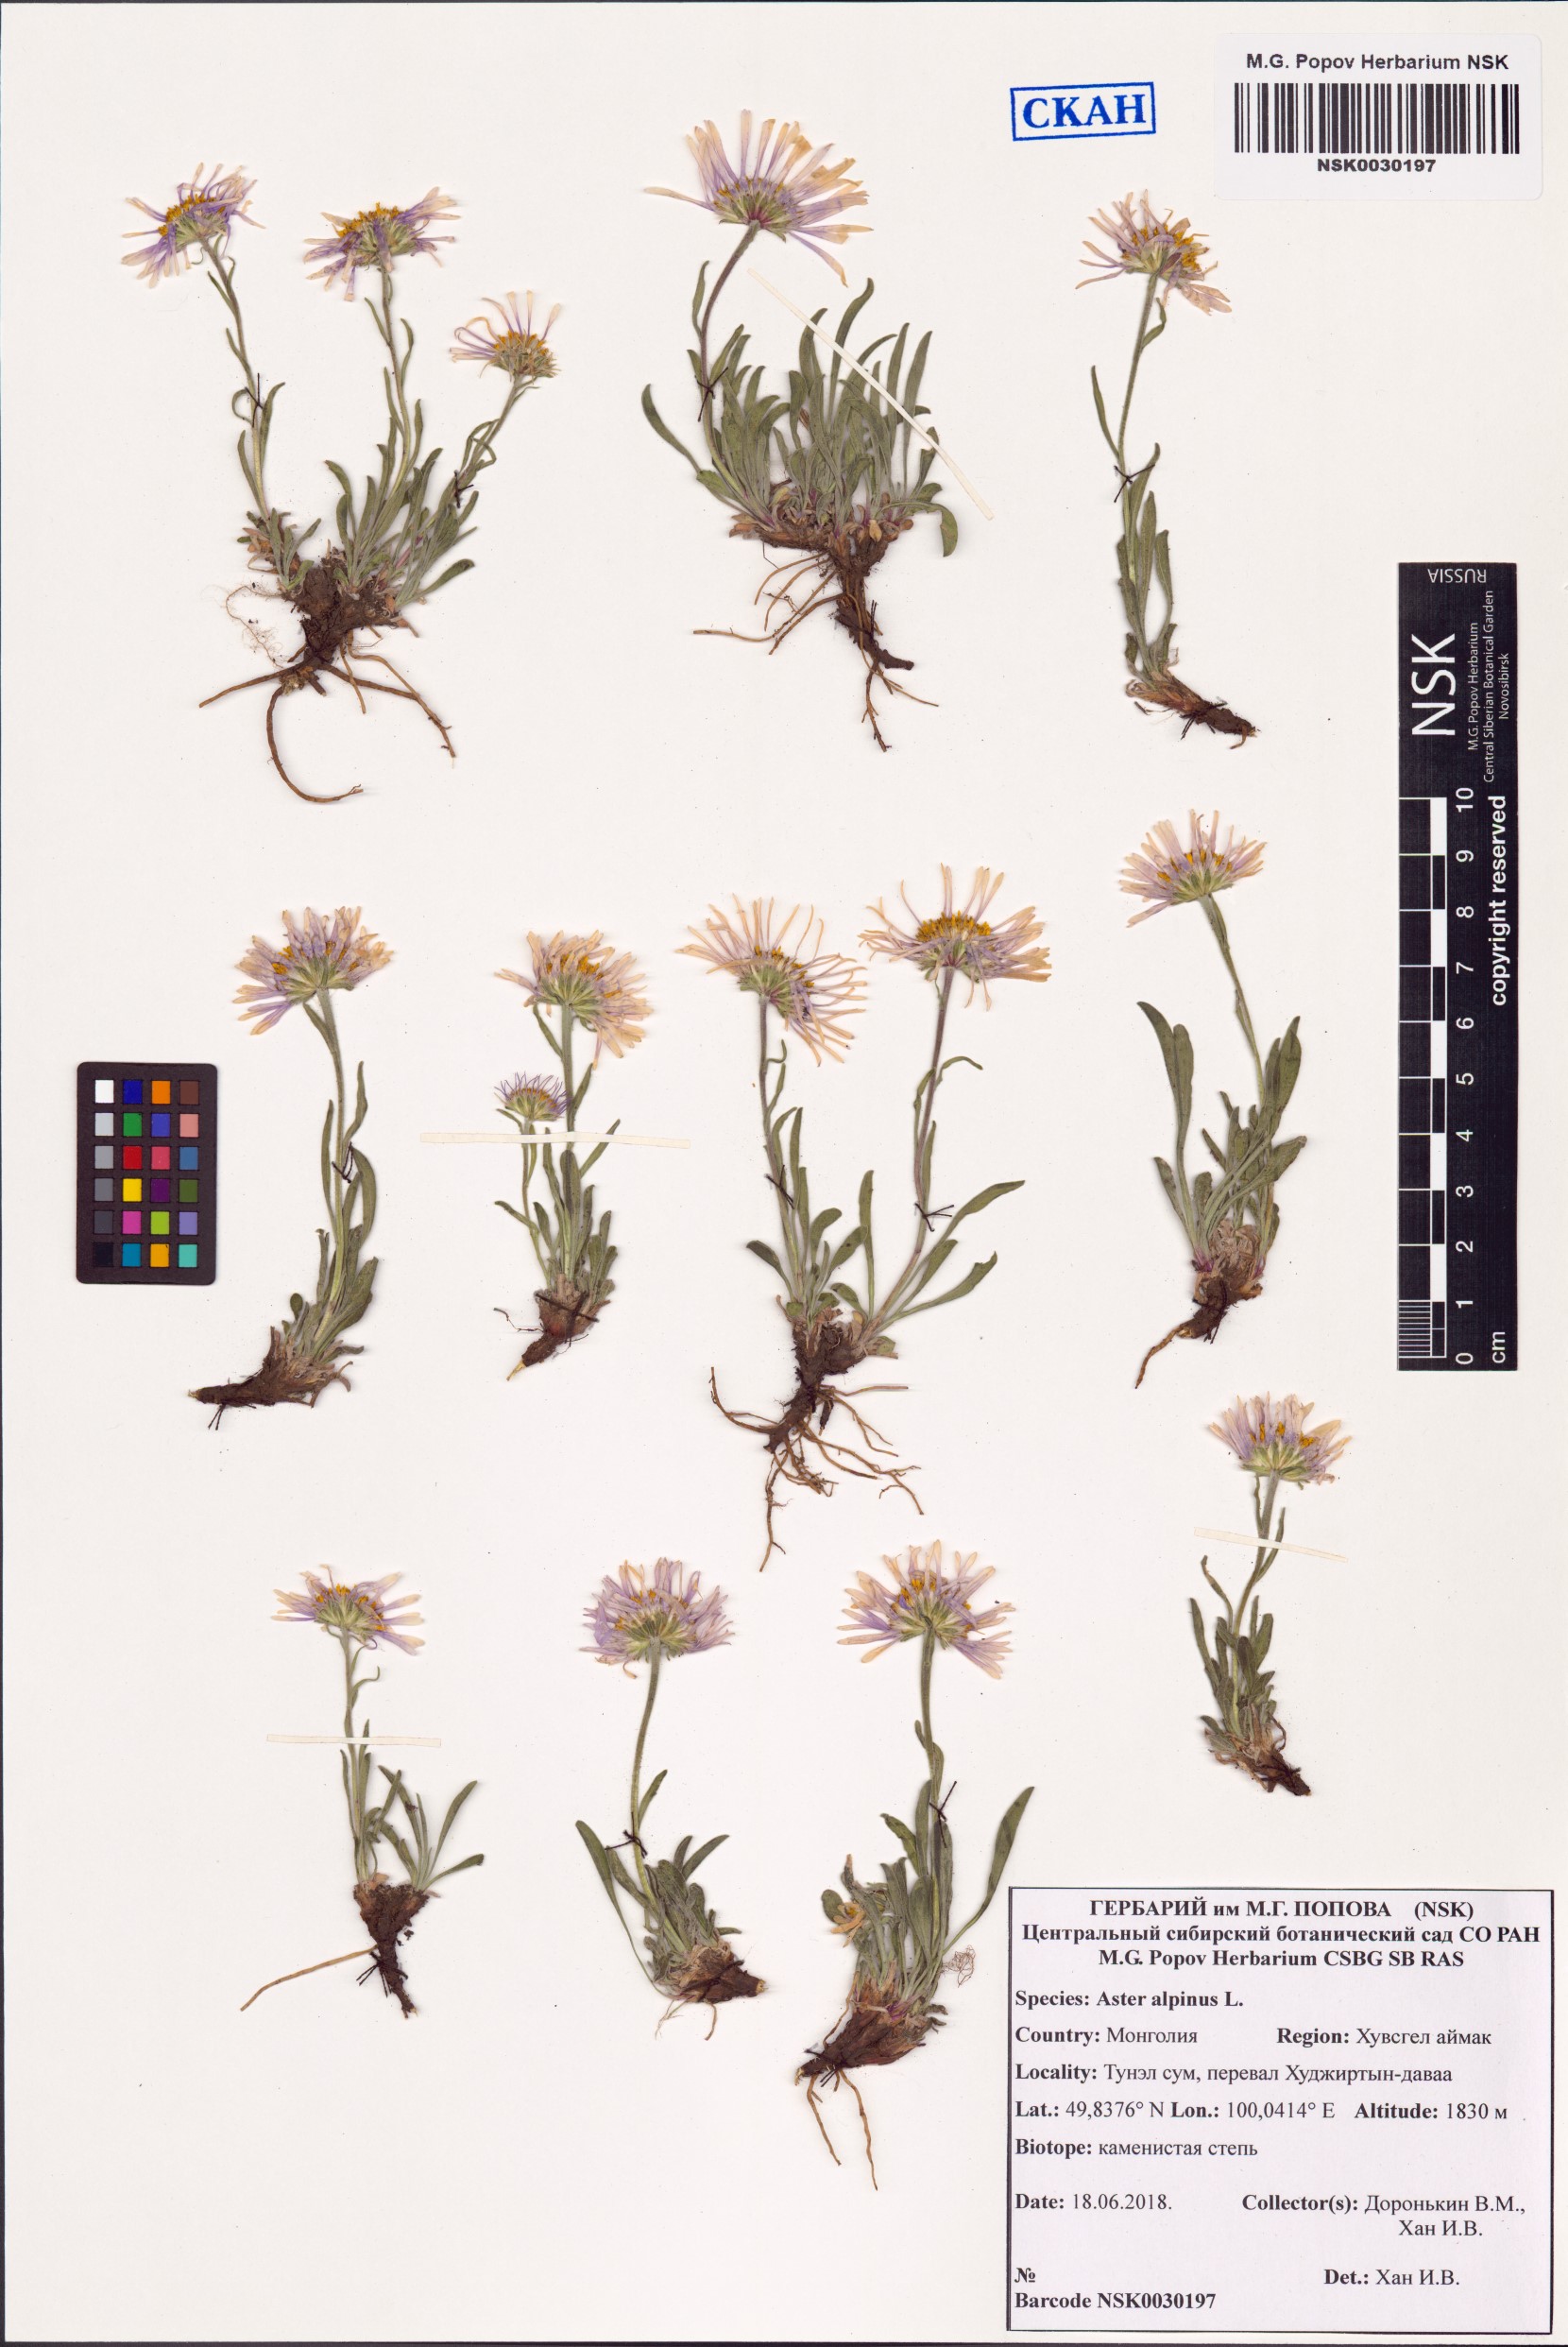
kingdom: Plantae
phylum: Tracheophyta
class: Magnoliopsida
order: Asterales
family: Asteraceae
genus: Aster
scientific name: Aster alpinus
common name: Alpine aster
